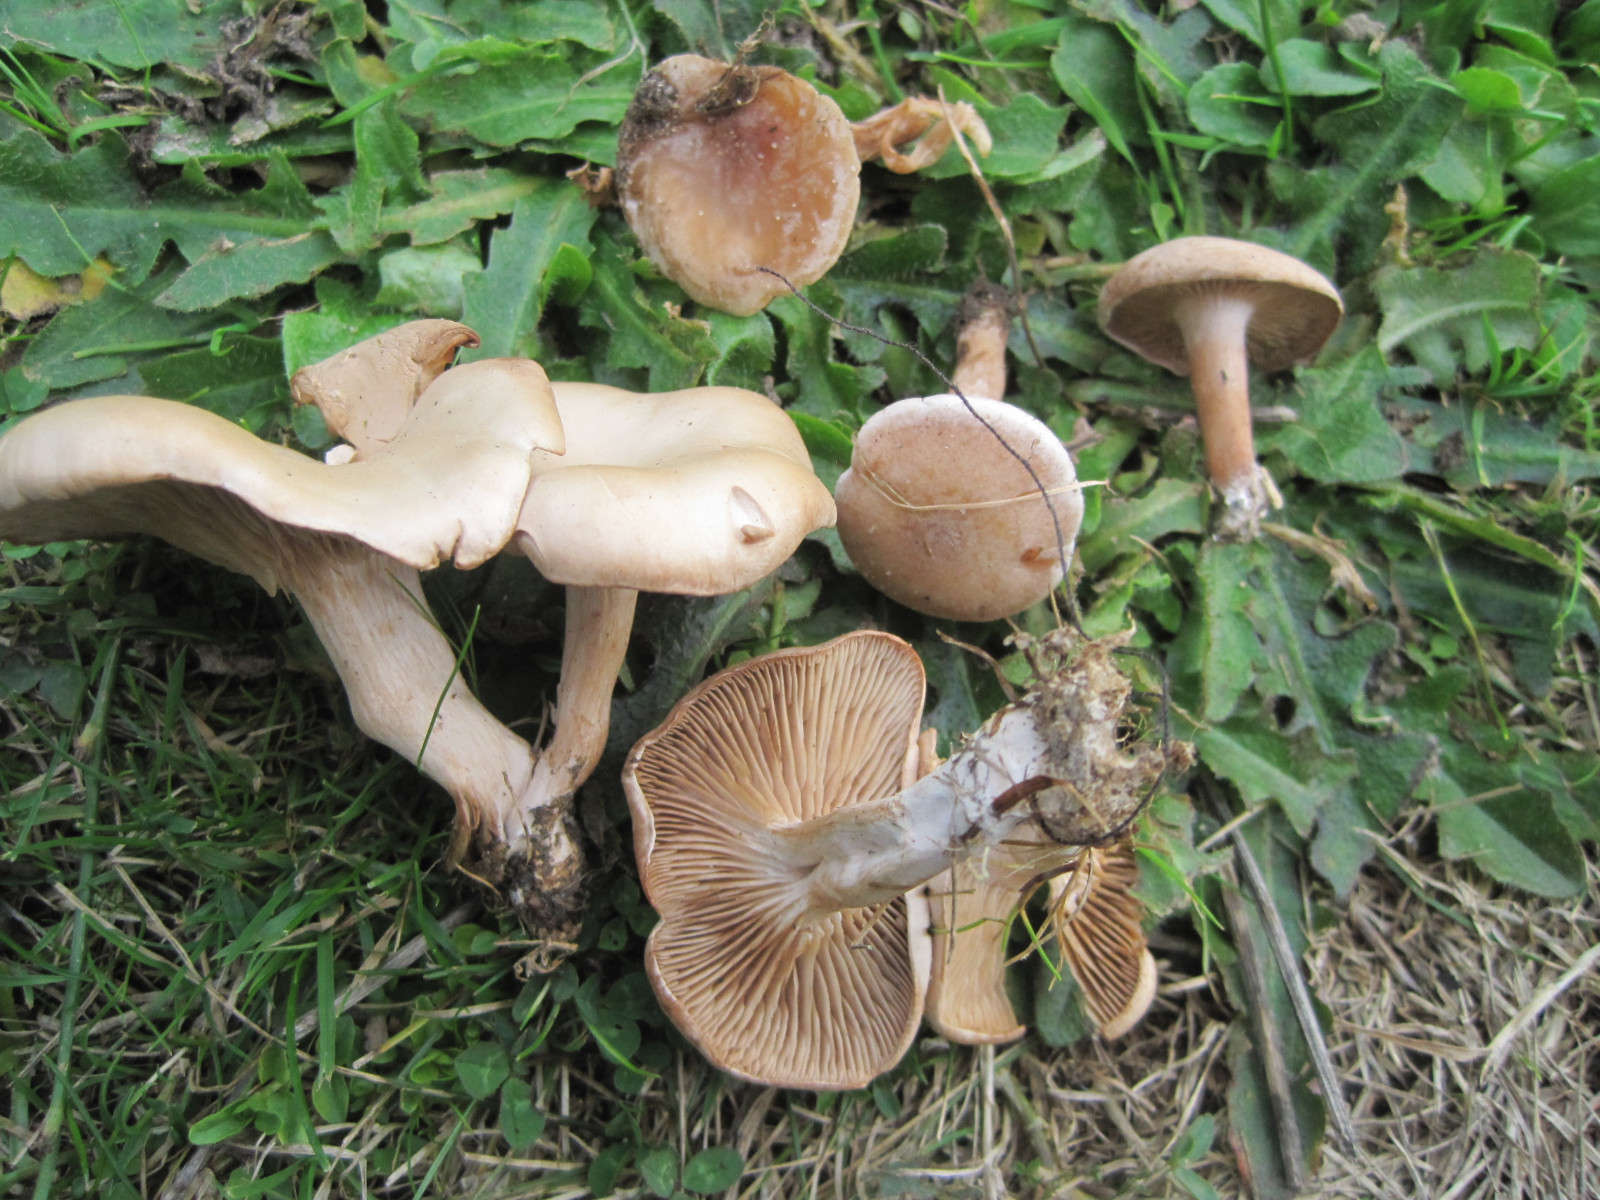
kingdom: Fungi
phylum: Basidiomycota
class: Agaricomycetes
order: Agaricales
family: Tricholomataceae
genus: Clitocybe
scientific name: Clitocybe rivulosa
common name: eng-tragthat
